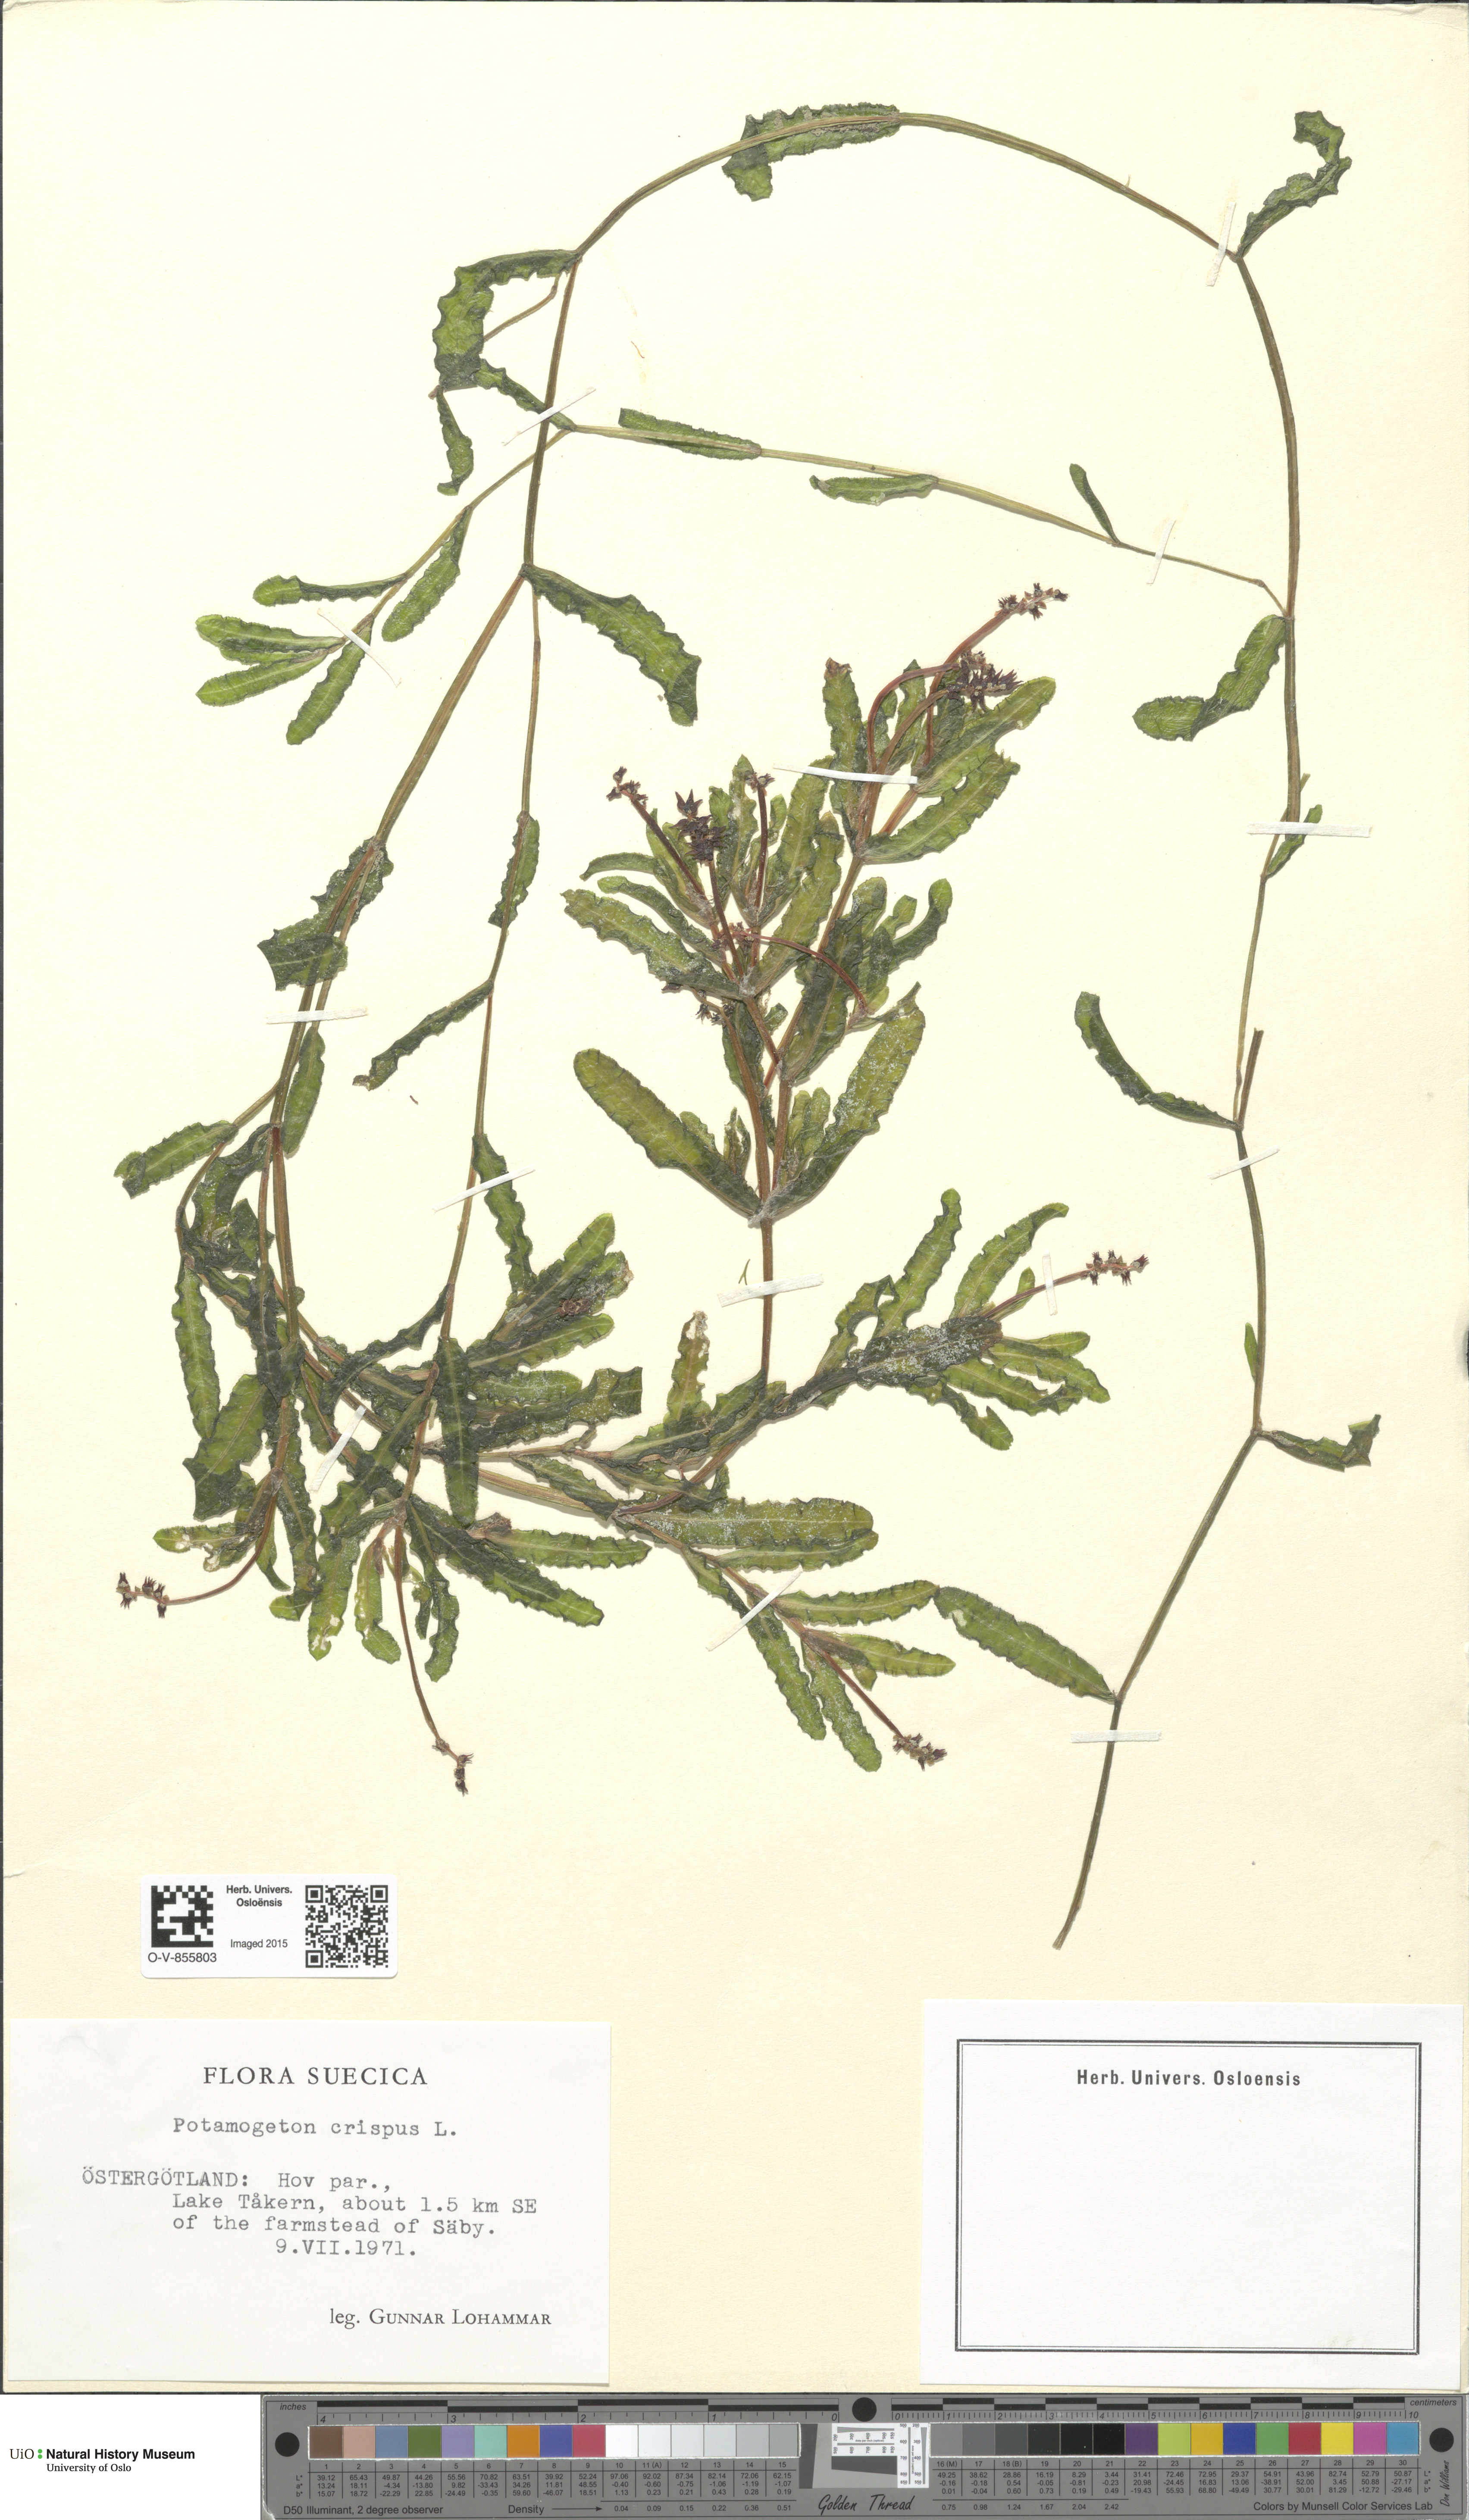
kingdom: Plantae
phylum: Tracheophyta
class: Liliopsida
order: Alismatales
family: Potamogetonaceae
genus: Potamogeton
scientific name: Potamogeton crispus
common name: Curled pondweed
